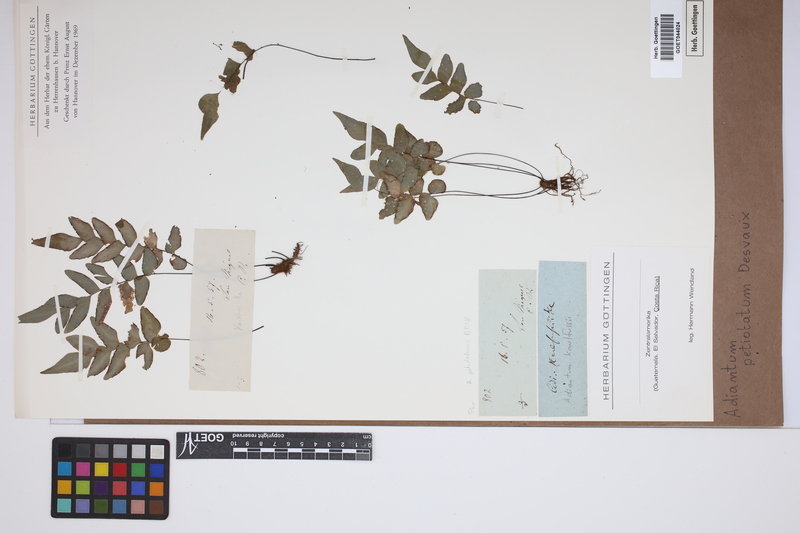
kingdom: Plantae
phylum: Tracheophyta
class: Polypodiopsida
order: Polypodiales
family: Pteridaceae
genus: Adiantum
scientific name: Adiantum petiolatum
